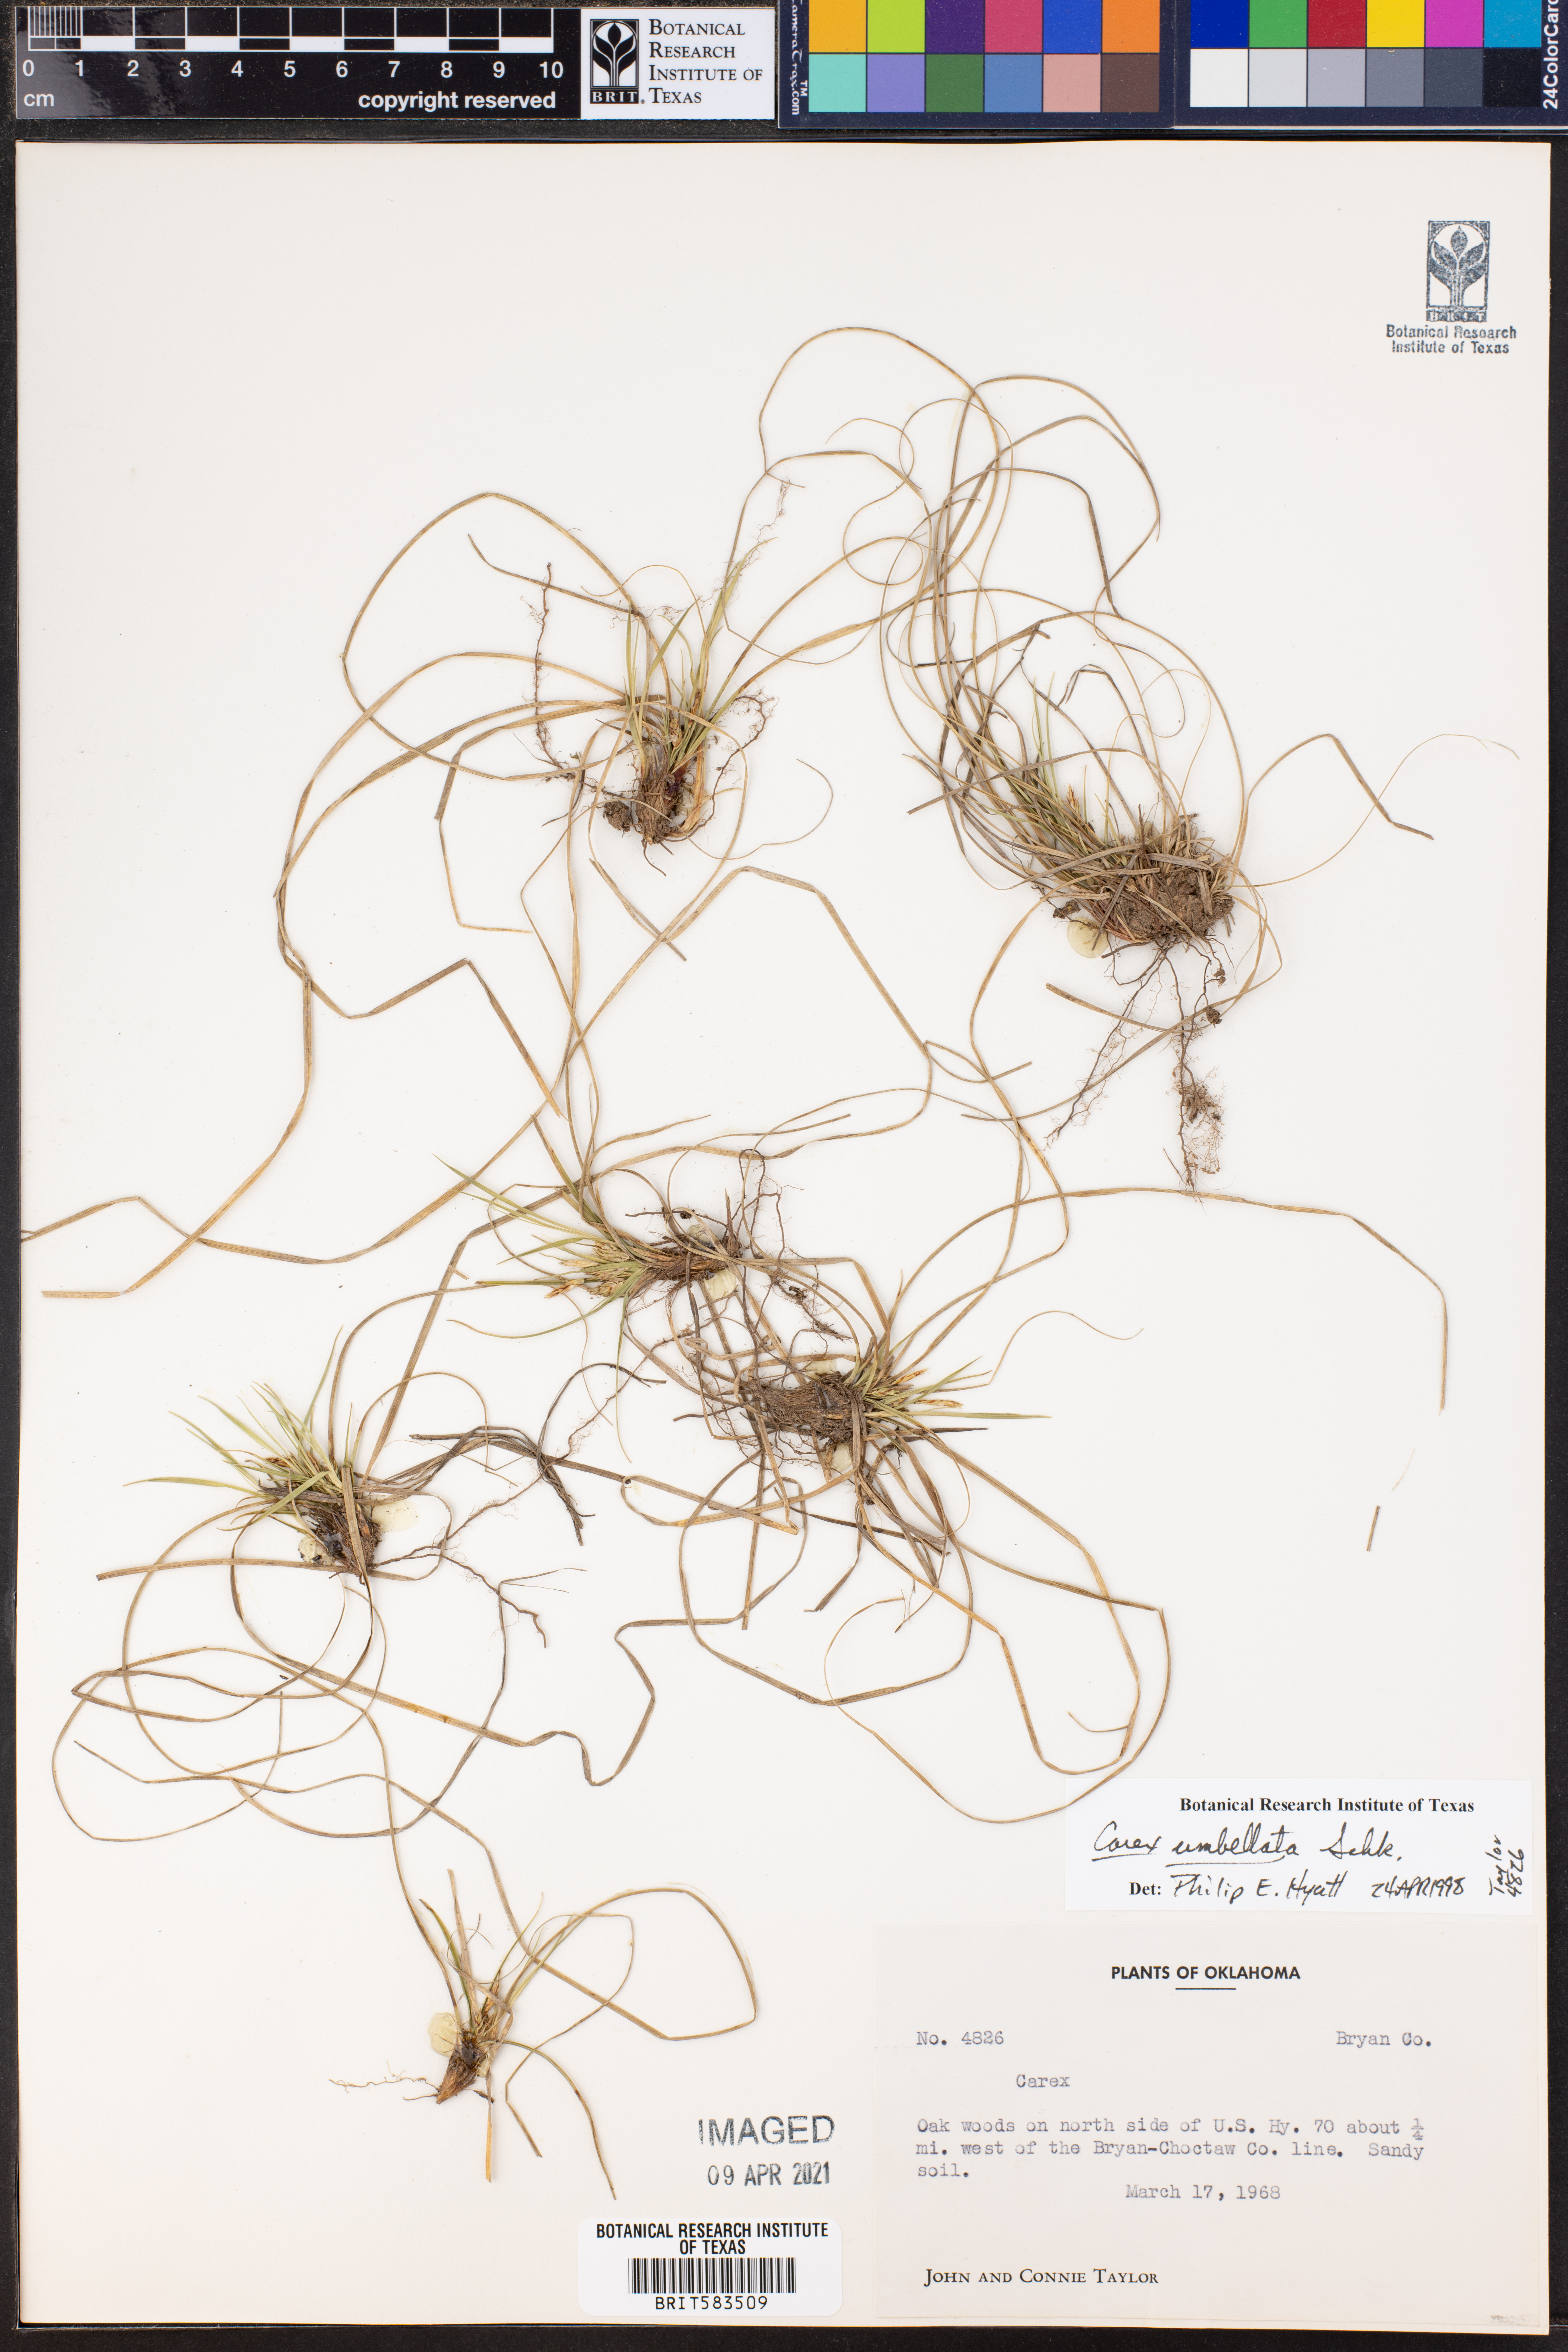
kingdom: Plantae
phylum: Tracheophyta
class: Liliopsida
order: Poales
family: Cyperaceae
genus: Carex
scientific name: Carex umbellata
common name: Early oak sedge
